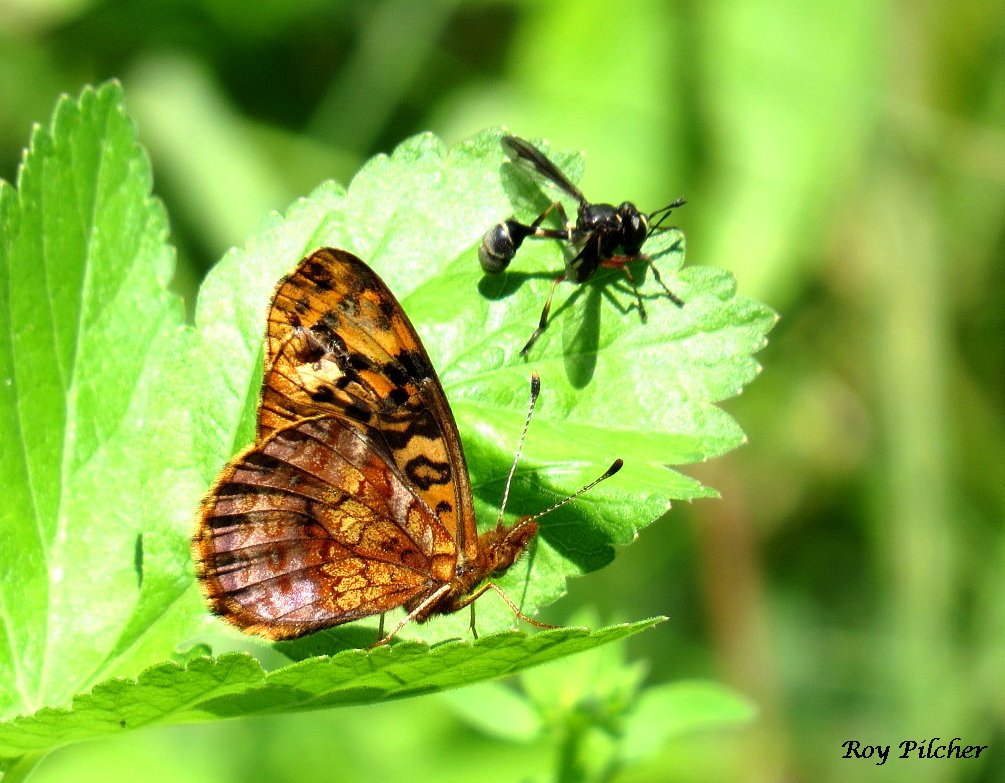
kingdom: Animalia
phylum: Arthropoda
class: Insecta
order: Lepidoptera
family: Nymphalidae
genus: Clossiana
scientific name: Clossiana toddi
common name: Meadow Fritillary
